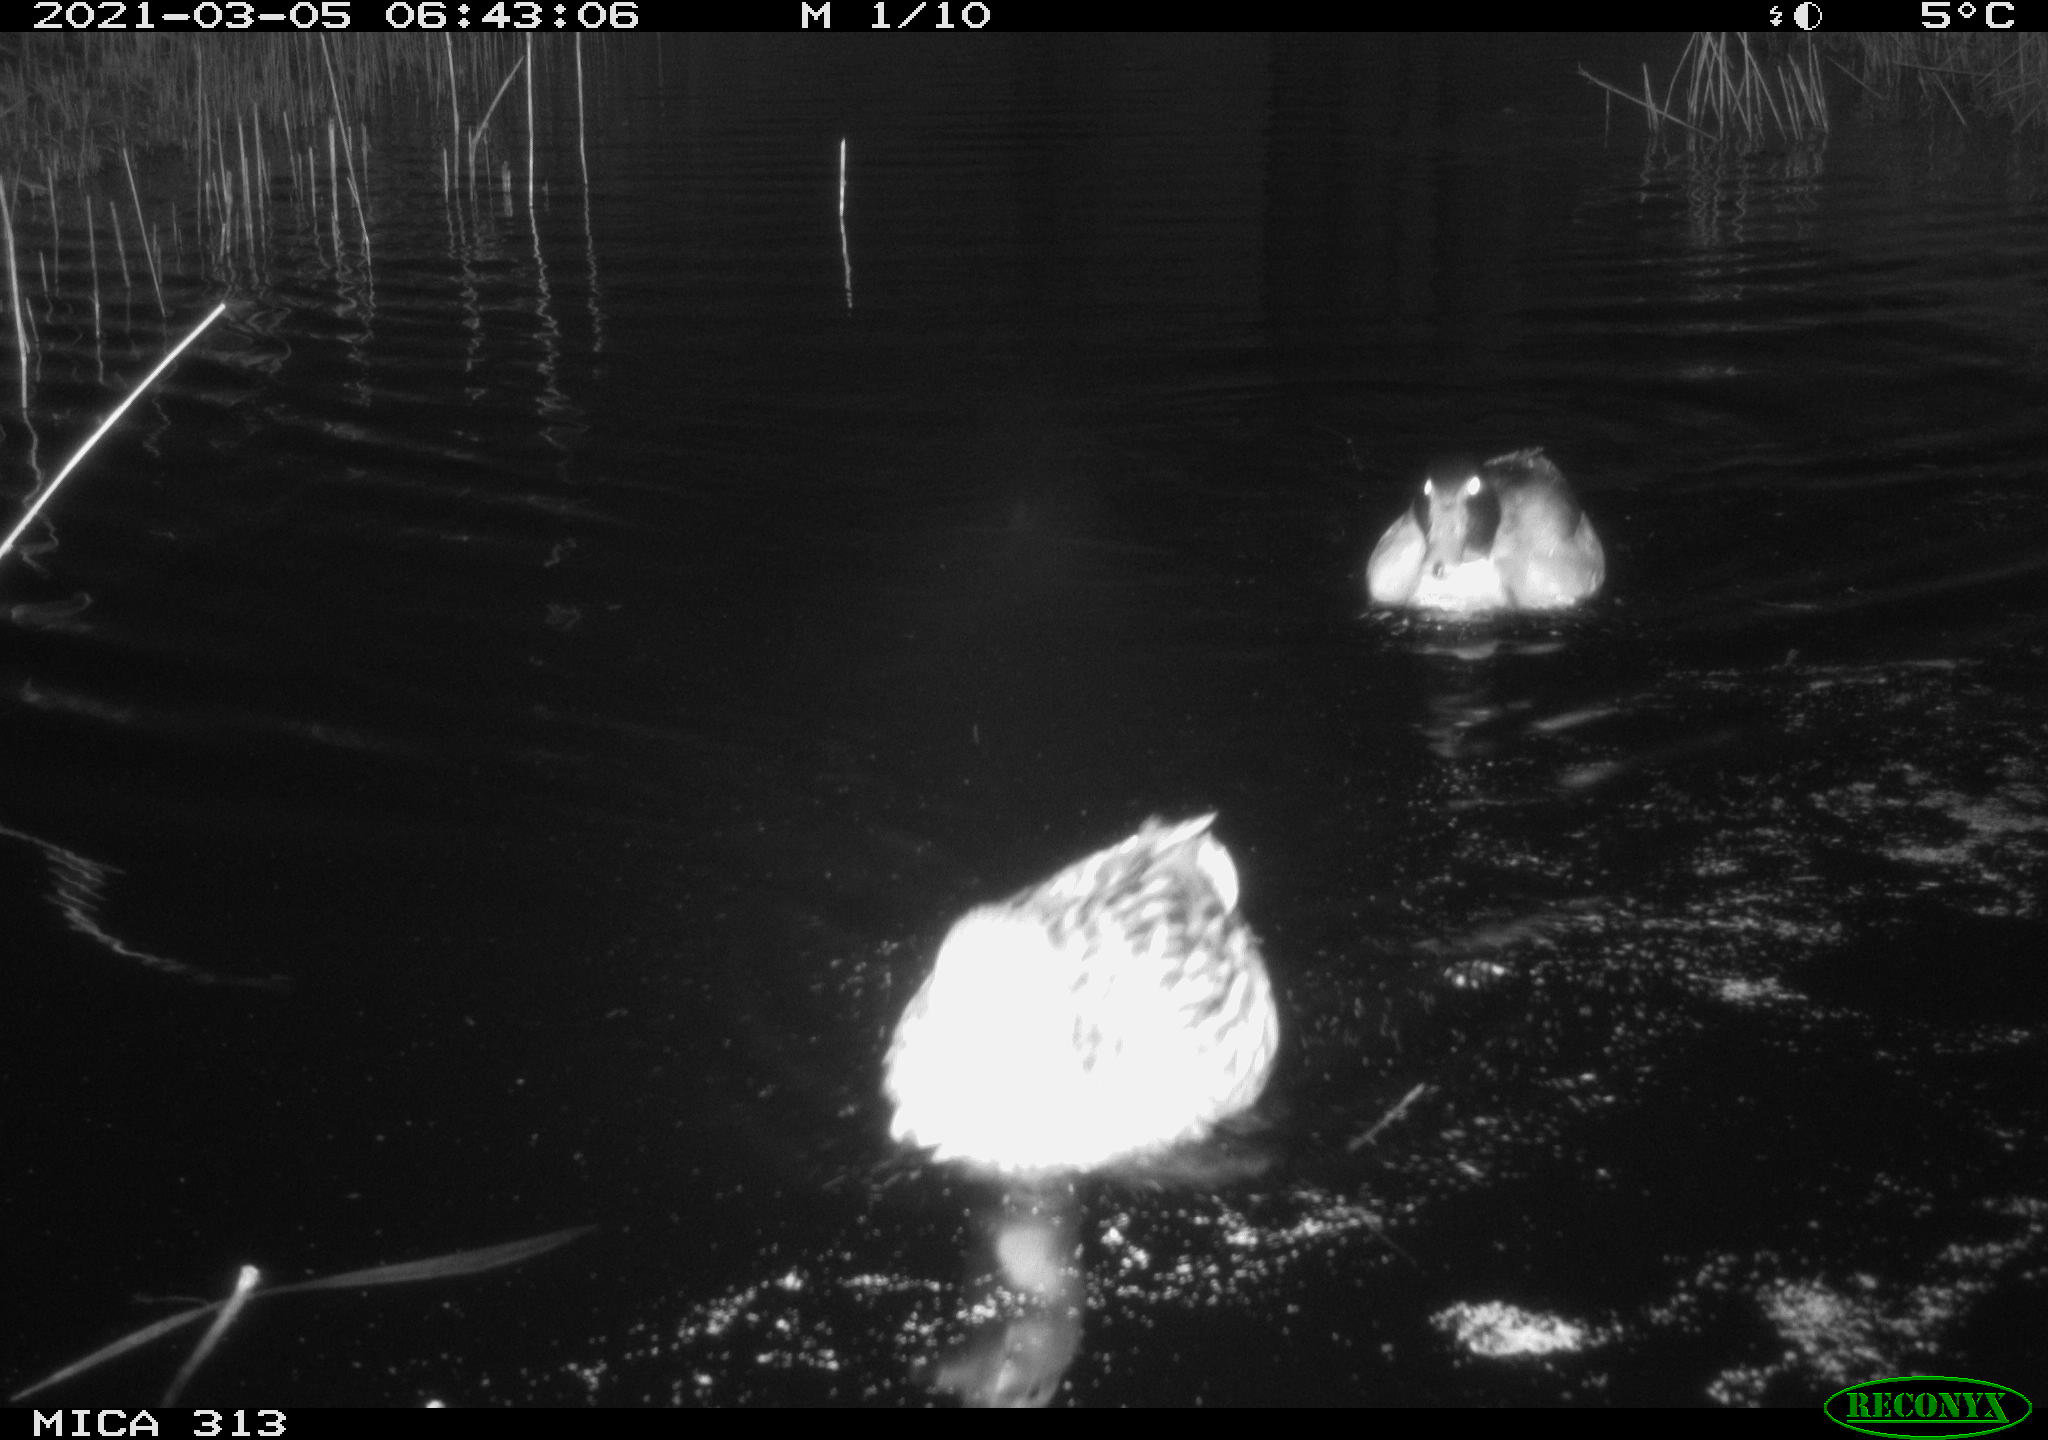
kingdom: Animalia
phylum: Chordata
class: Aves
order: Anseriformes
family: Anatidae
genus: Anas
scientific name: Anas platyrhynchos
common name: Mallard
